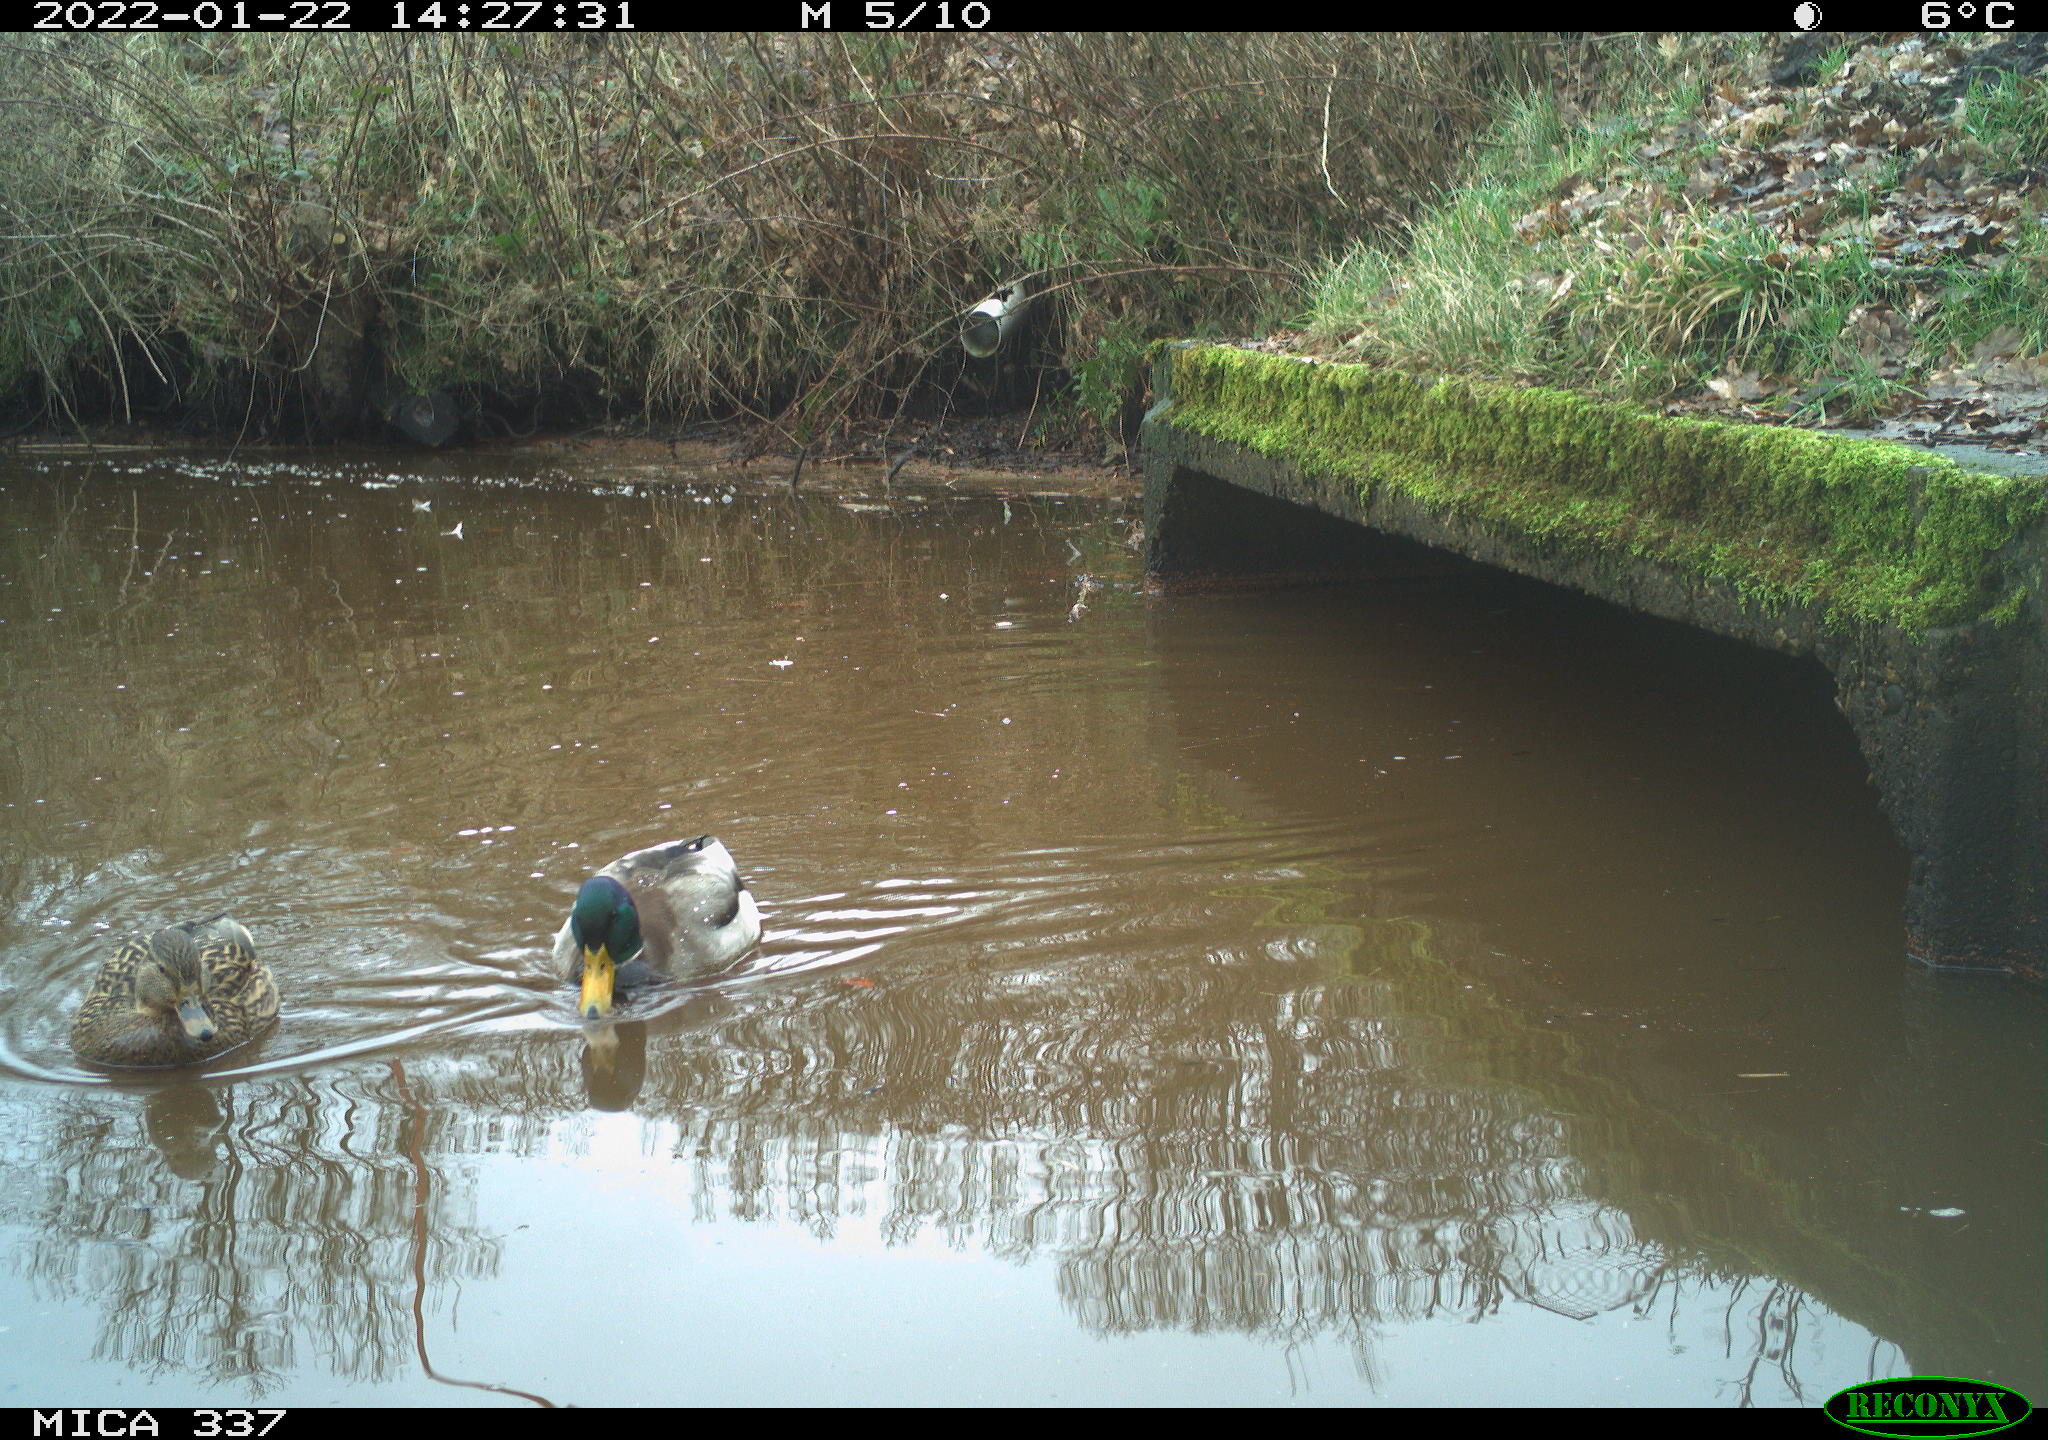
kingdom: Animalia
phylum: Chordata
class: Aves
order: Anseriformes
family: Anatidae
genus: Anas
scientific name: Anas platyrhynchos
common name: Mallard
